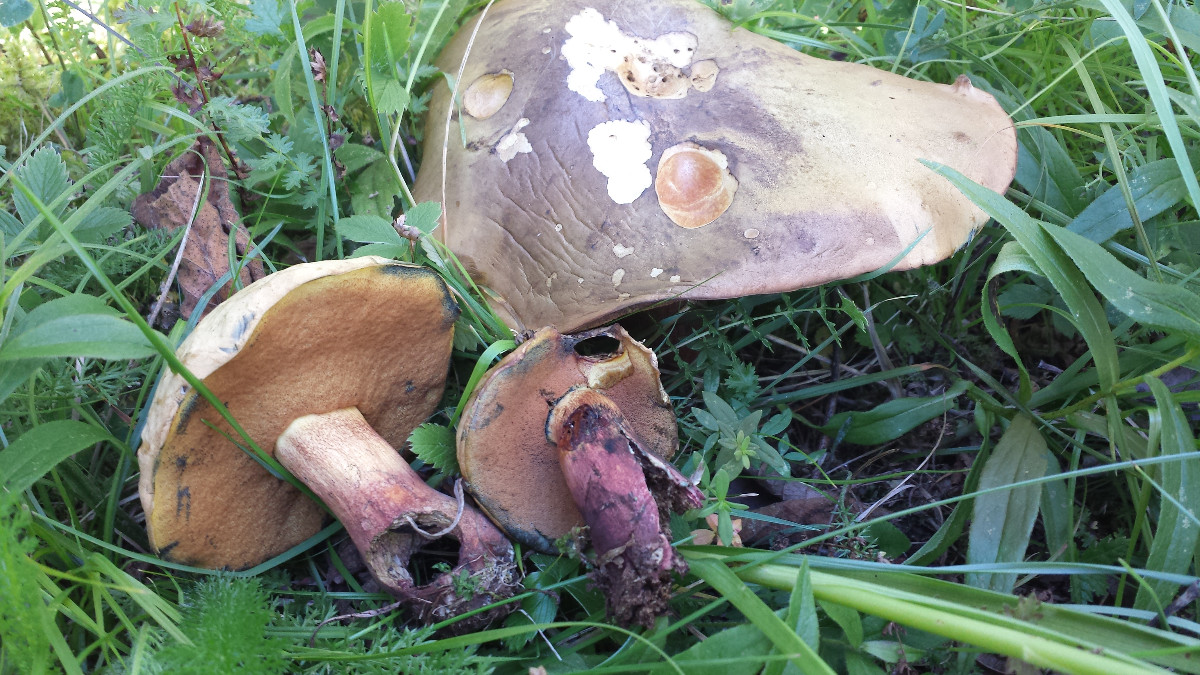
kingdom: Fungi
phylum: Basidiomycota
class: Agaricomycetes
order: Boletales
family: Boletaceae
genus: Suillellus
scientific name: Suillellus luridus
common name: netstokket indigorørhat
